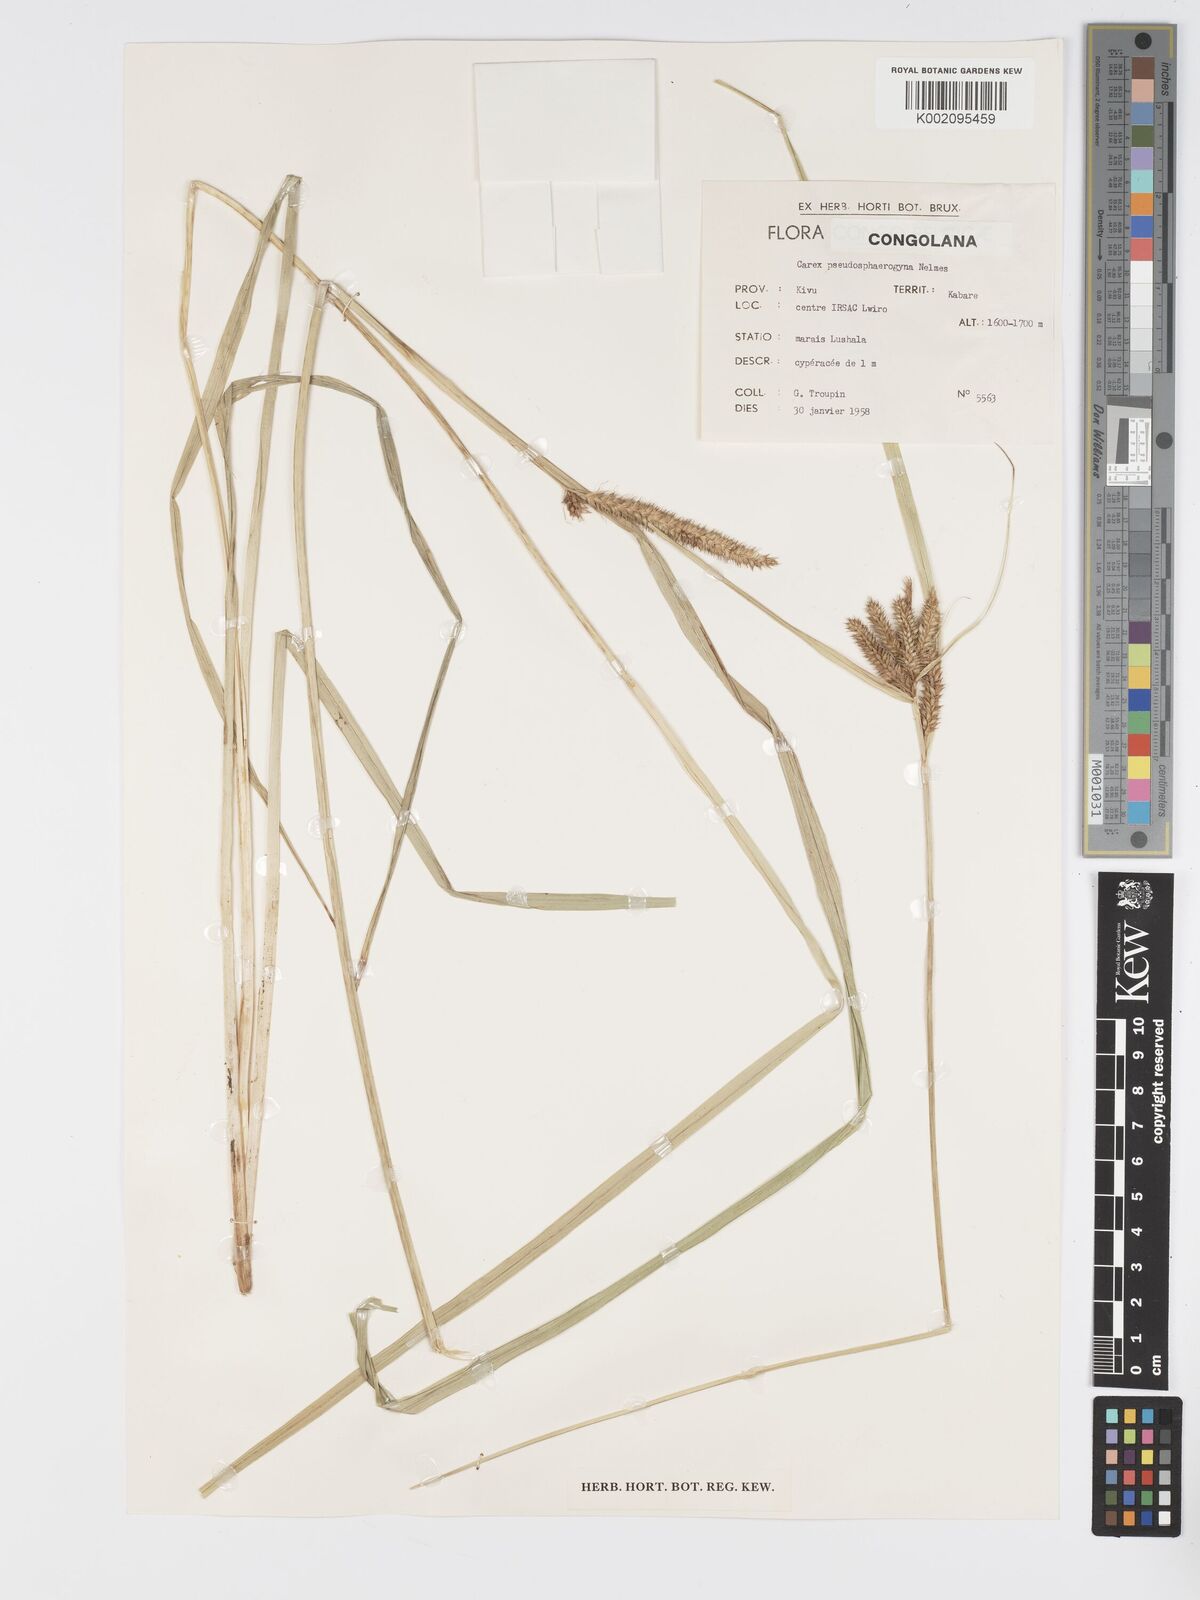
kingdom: Plantae
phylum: Tracheophyta
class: Liliopsida
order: Poales
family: Cyperaceae
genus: Carex
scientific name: Carex congolensis
